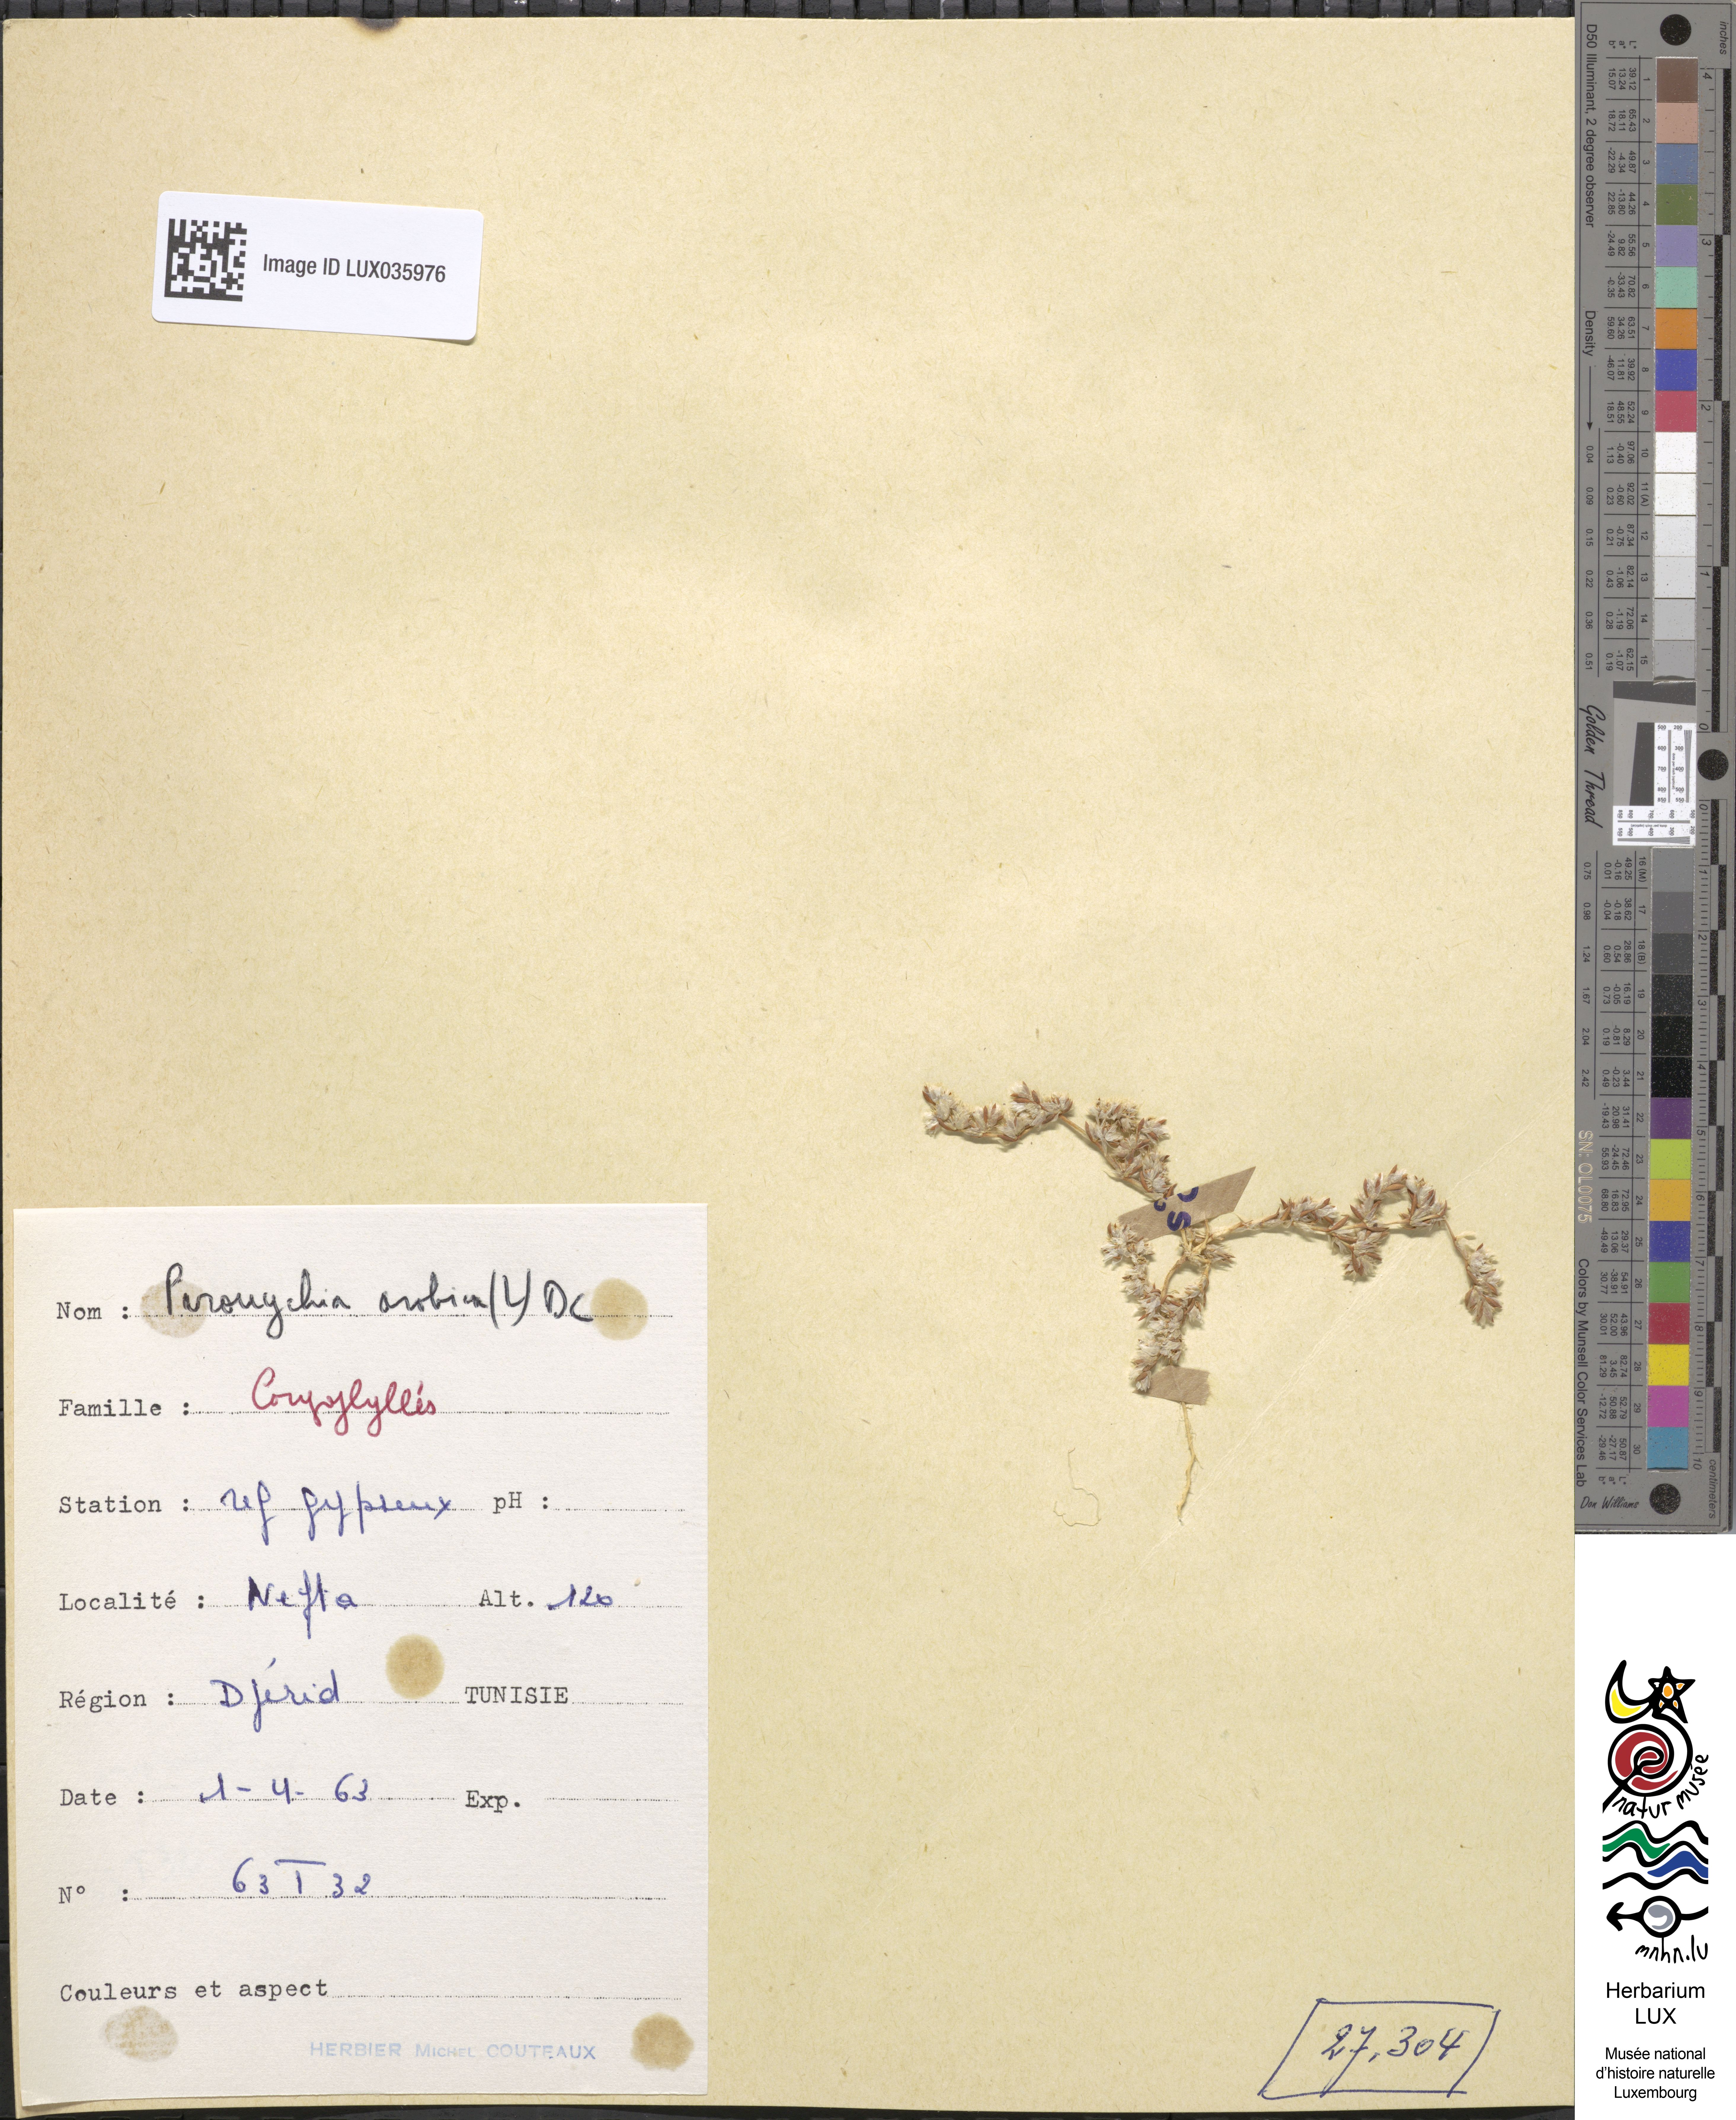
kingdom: Plantae
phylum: Tracheophyta
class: Magnoliopsida
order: Caryophyllales
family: Caryophyllaceae
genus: Paronychia
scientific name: Paronychia arabica
